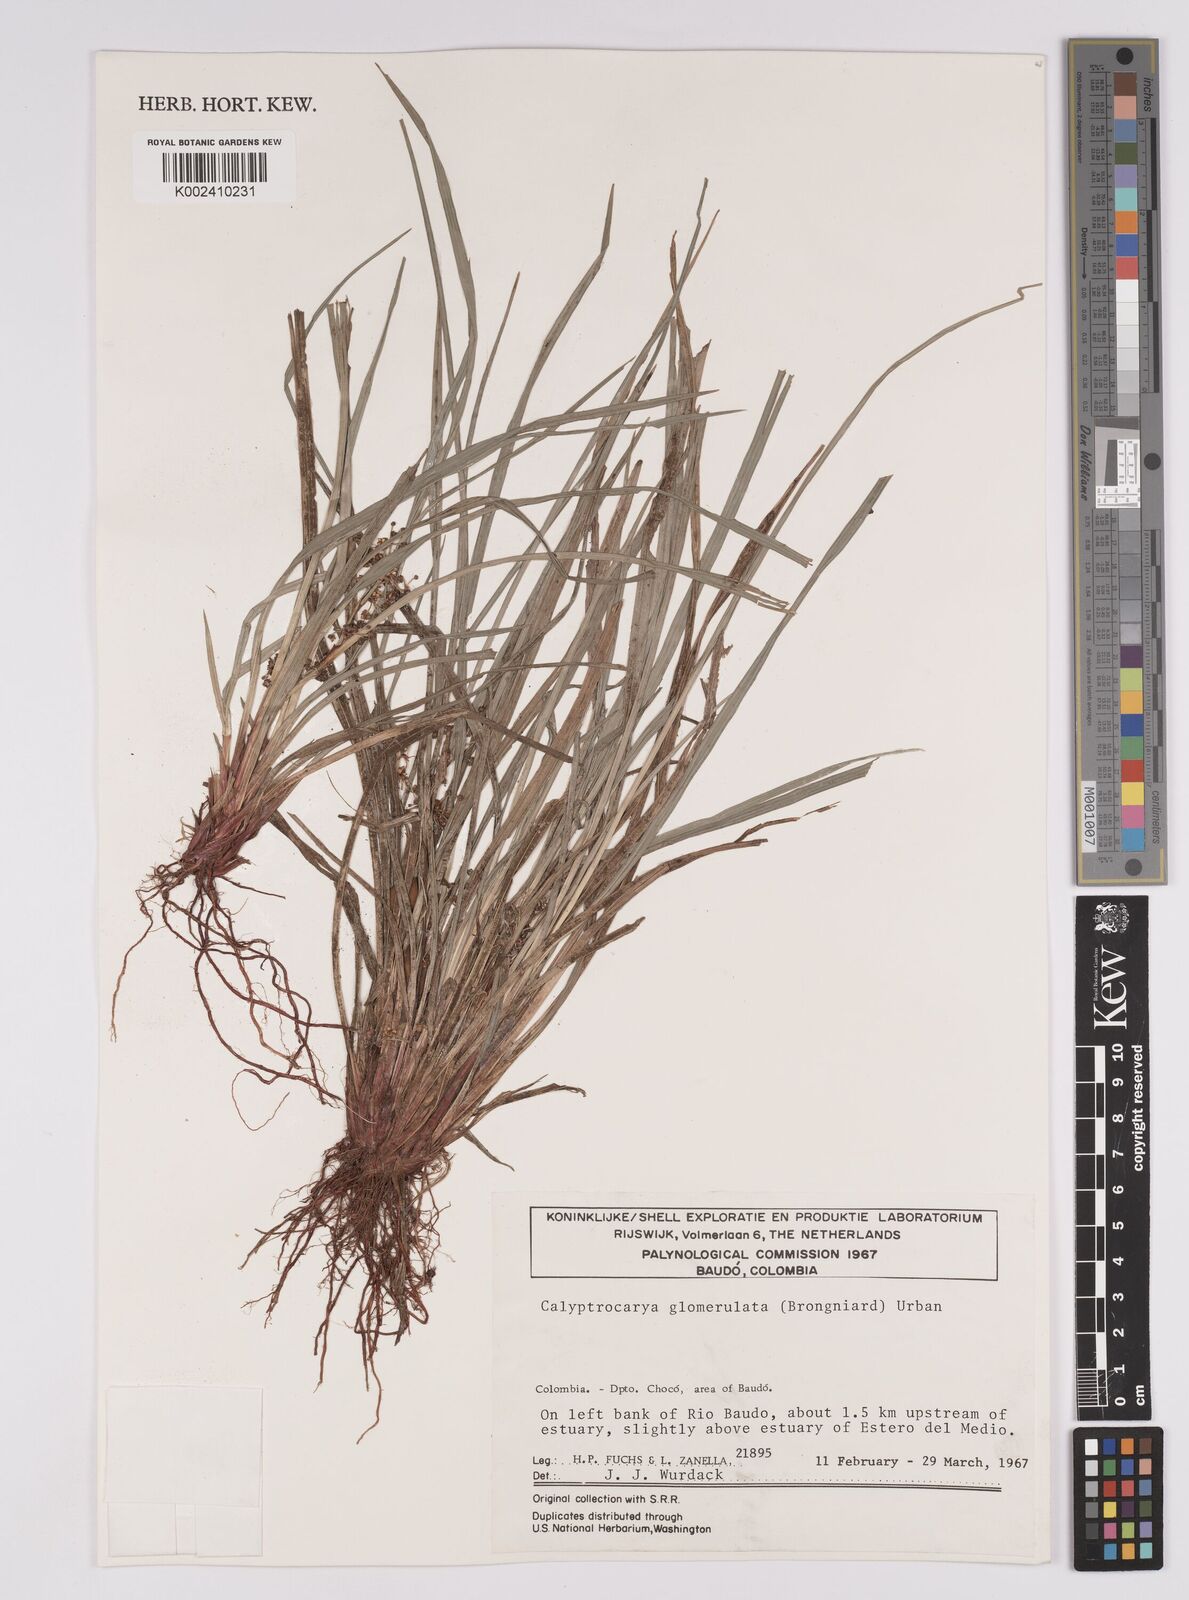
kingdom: Plantae
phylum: Tracheophyta
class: Liliopsida
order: Poales
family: Cyperaceae
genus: Calyptrocarya
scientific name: Calyptrocarya glomerulata
